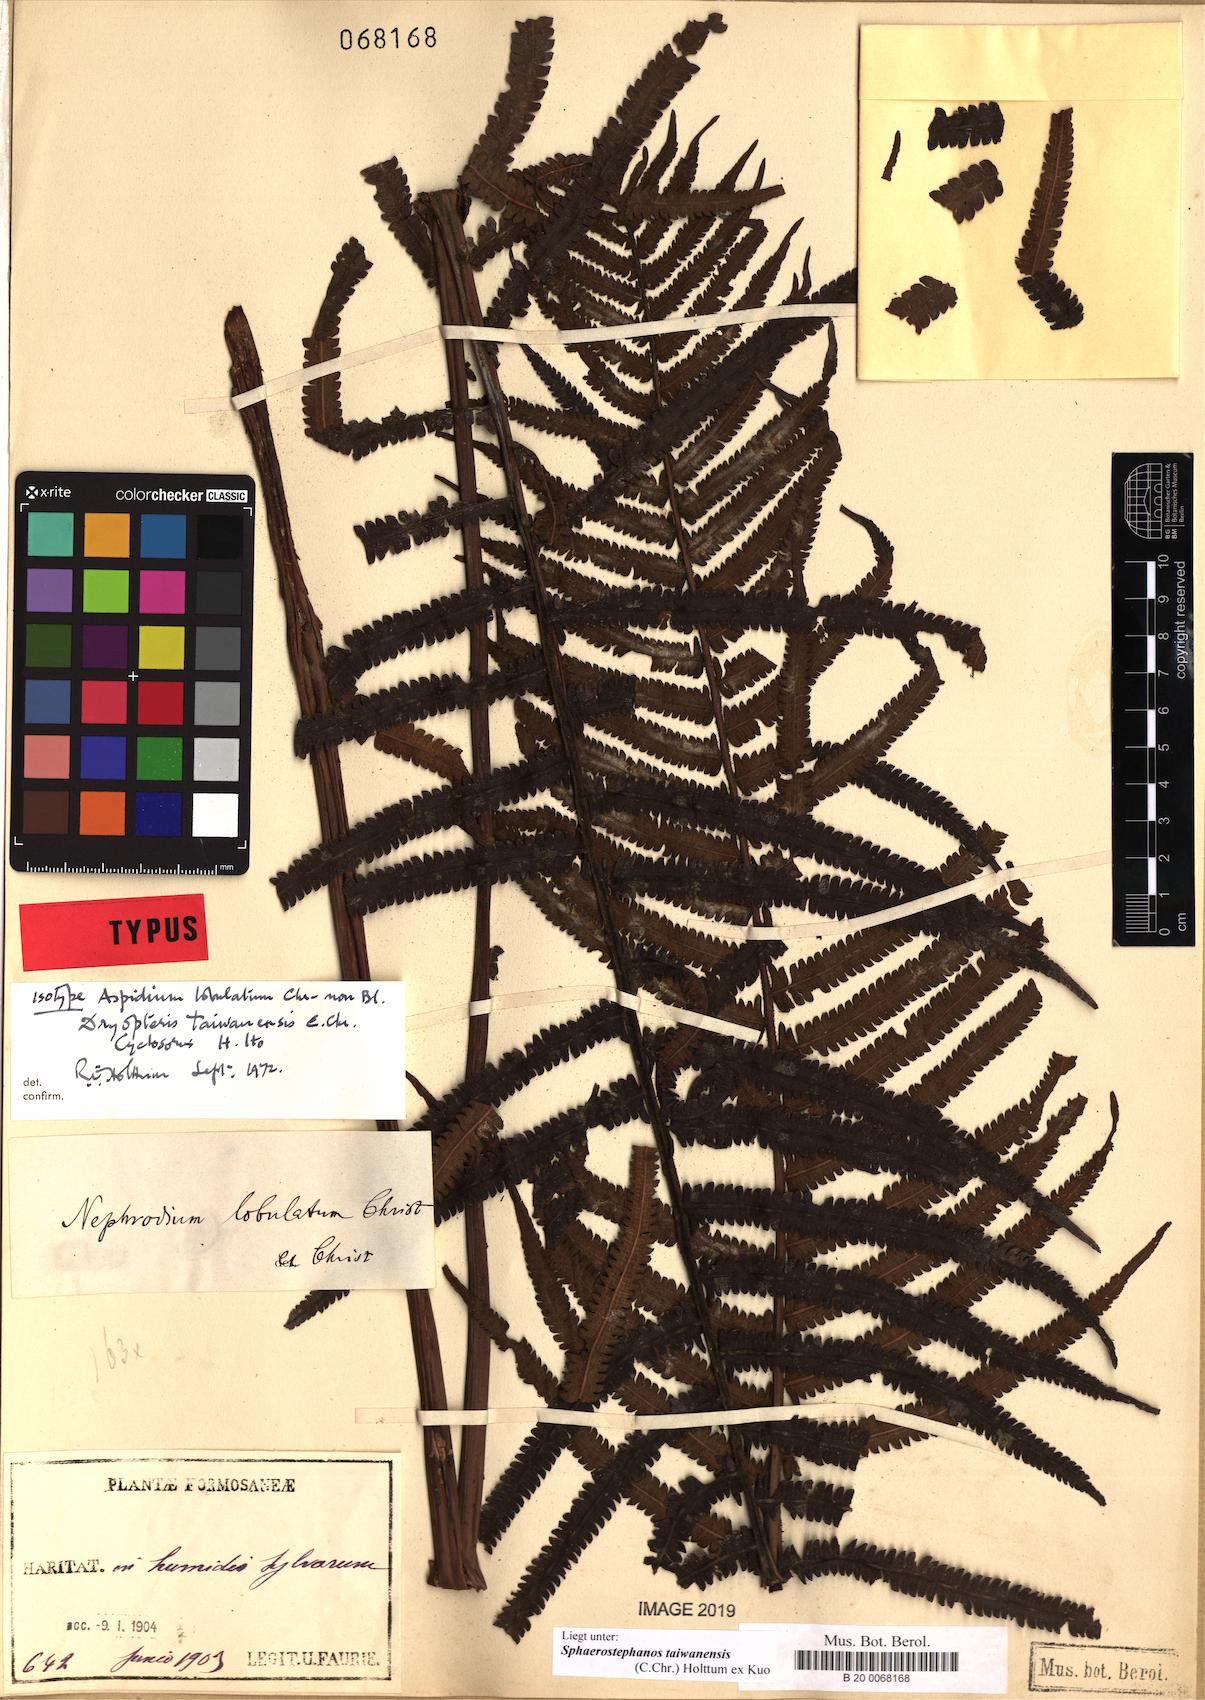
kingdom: Plantae
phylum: Tracheophyta
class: Polypodiopsida
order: Polypodiales
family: Thelypteridaceae
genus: Sphaerostephanos
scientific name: Sphaerostephanos taiwanensis
